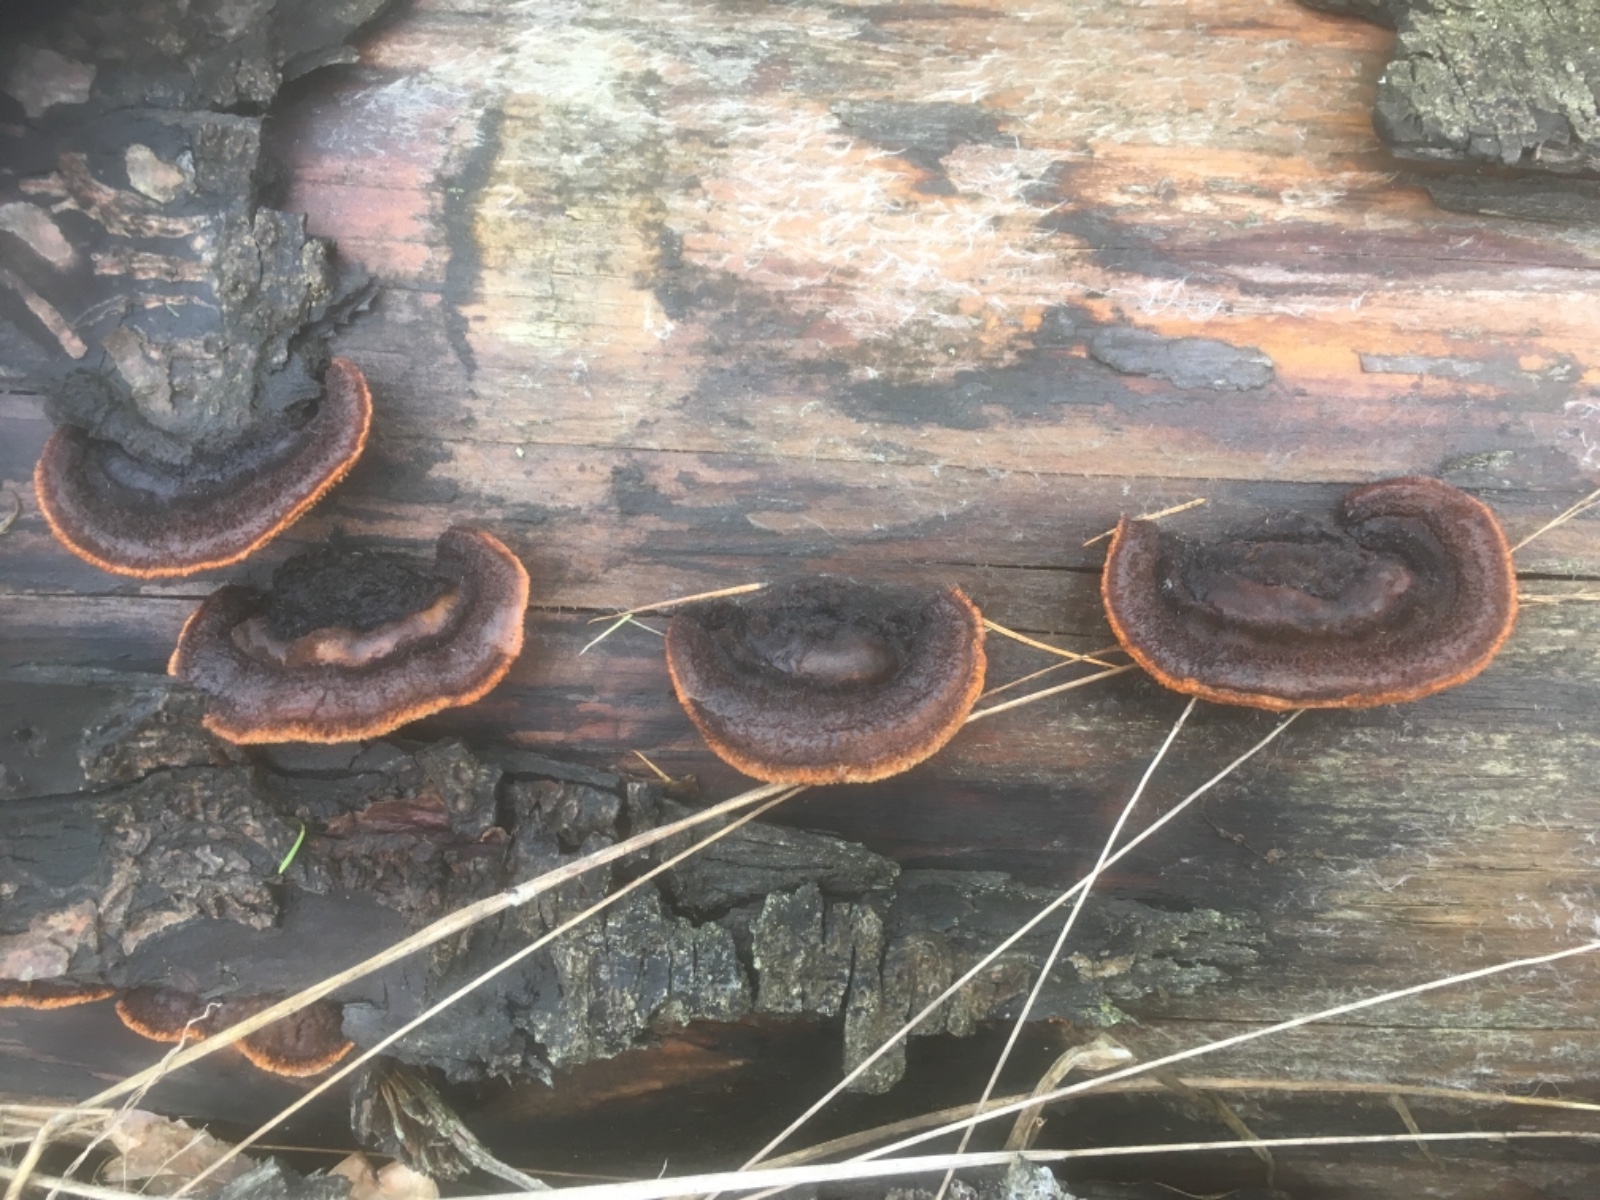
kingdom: Fungi
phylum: Basidiomycota
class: Agaricomycetes
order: Gloeophyllales
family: Gloeophyllaceae
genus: Gloeophyllum
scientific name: Gloeophyllum sepiarium
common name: fyrre-korkhat
